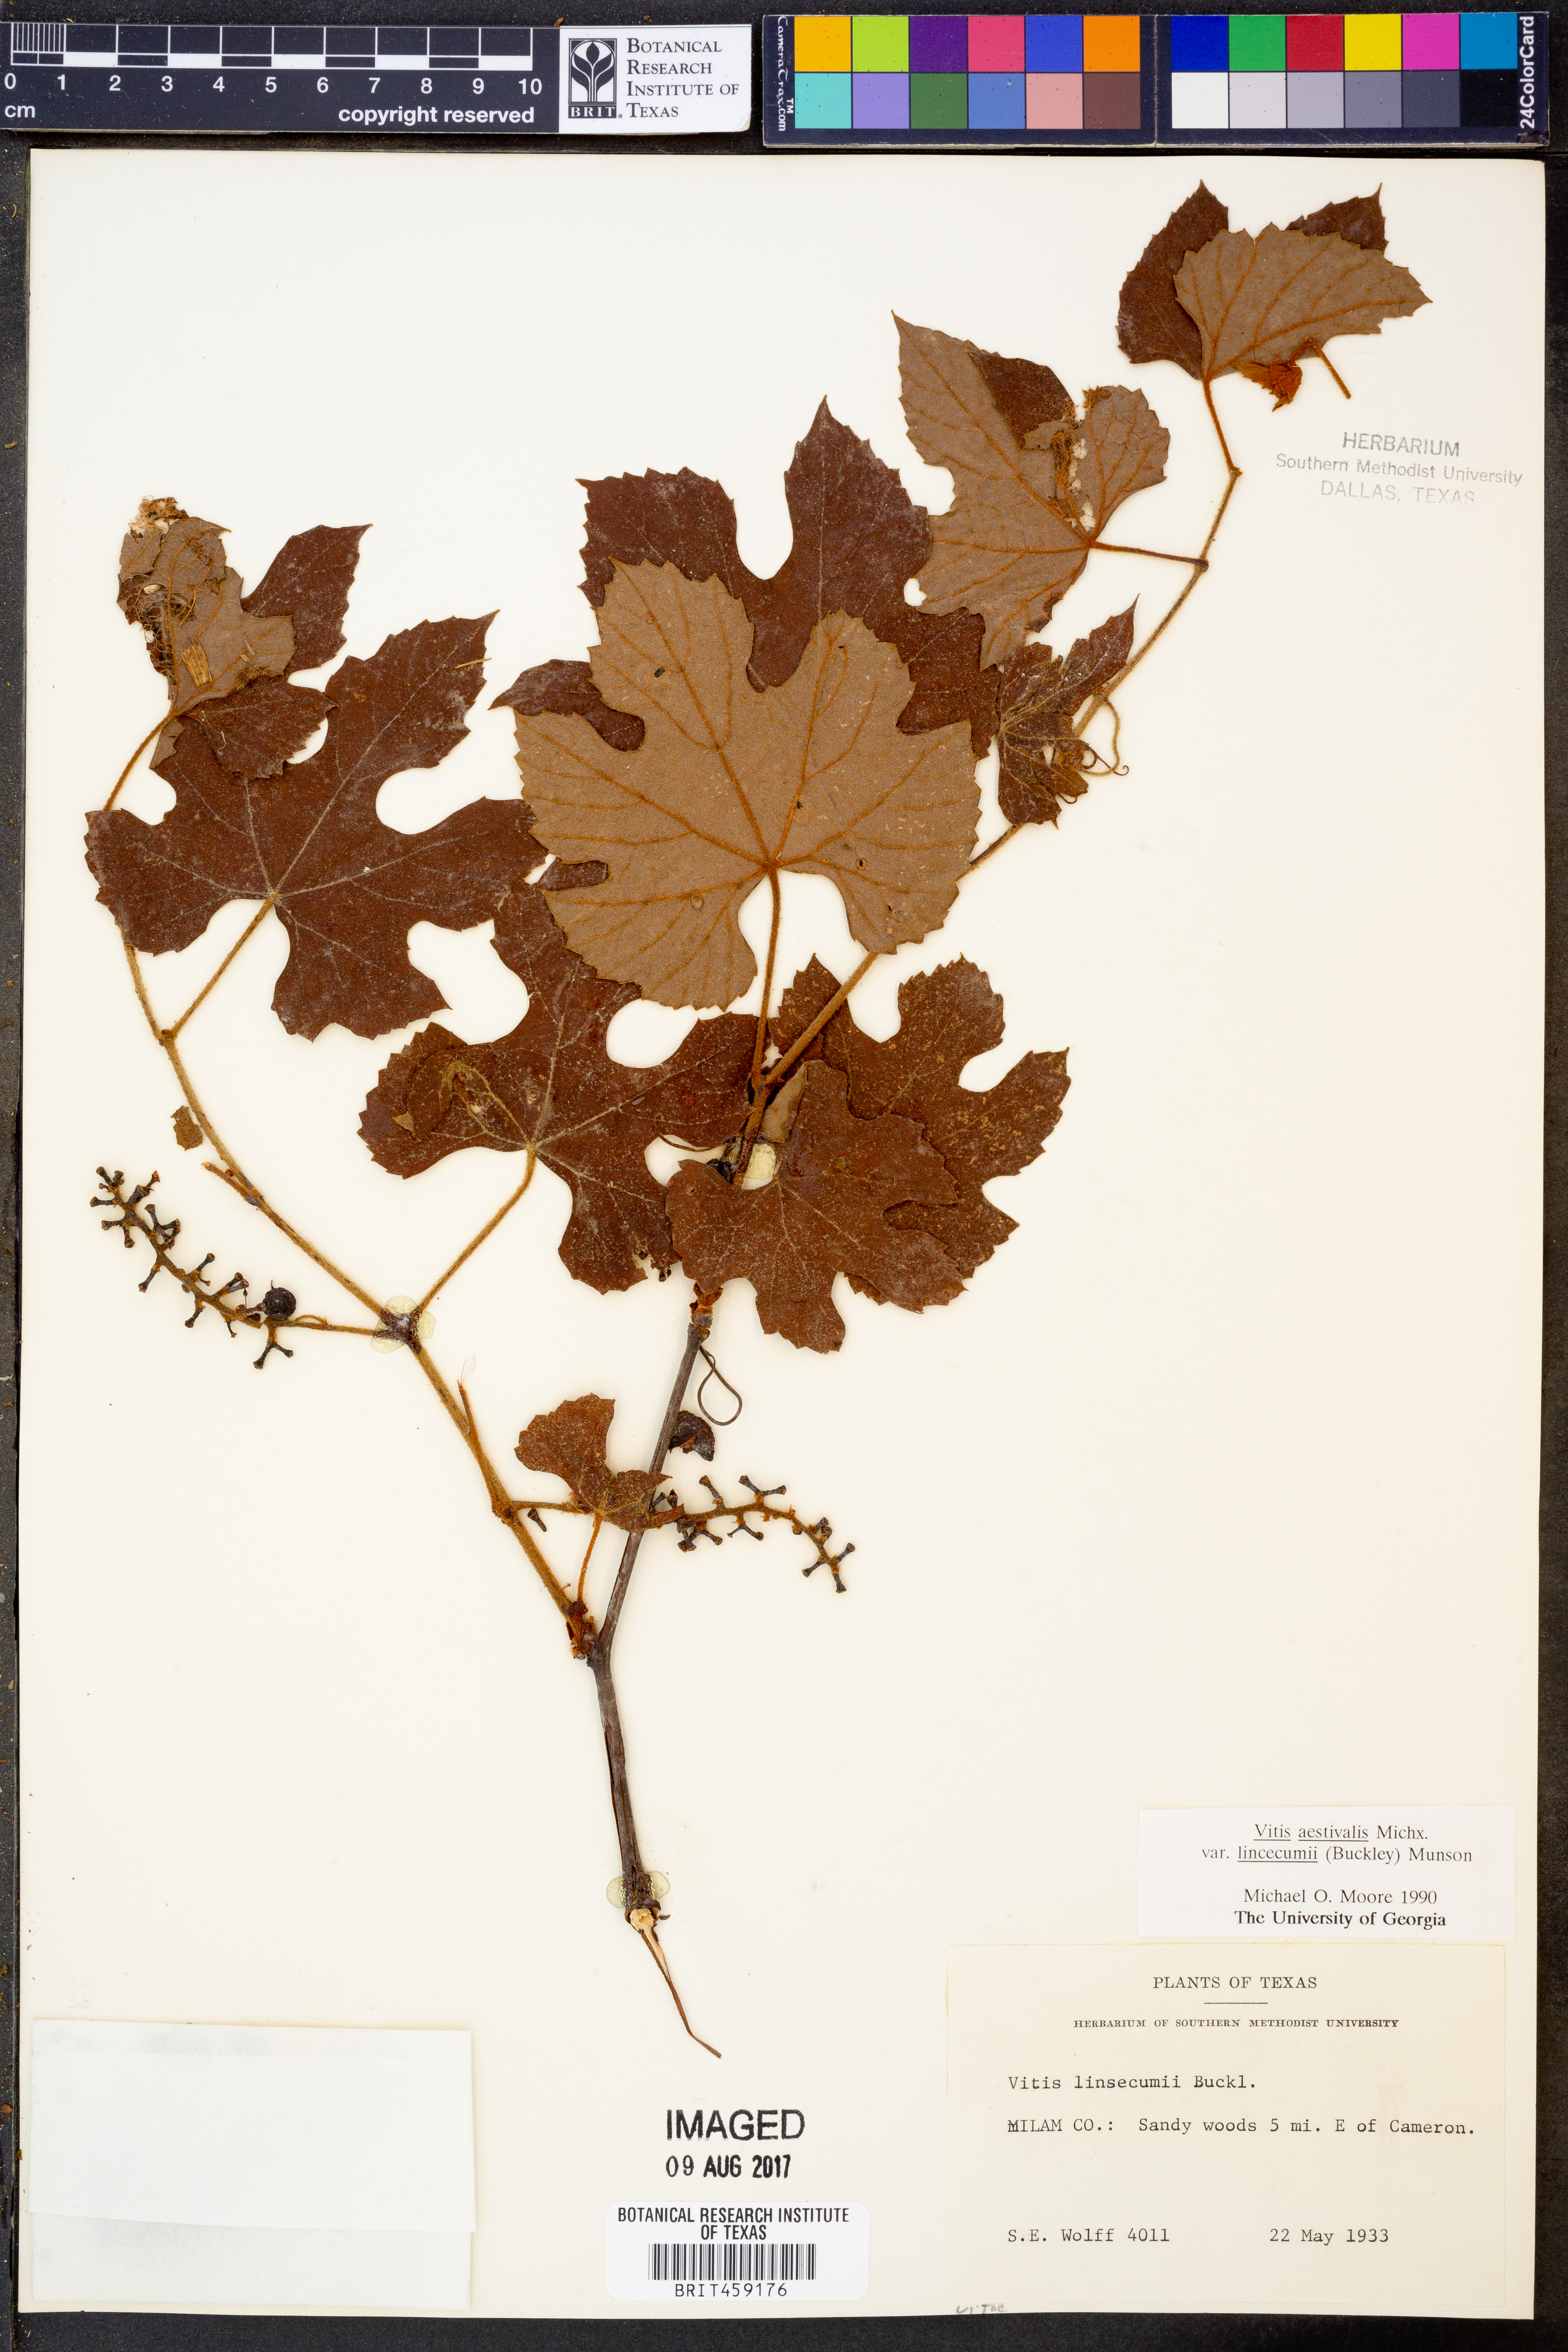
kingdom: Plantae
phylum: Tracheophyta
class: Magnoliopsida
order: Vitales
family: Vitaceae
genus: Vitis
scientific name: Vitis aestivalis
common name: Pigeon grape
